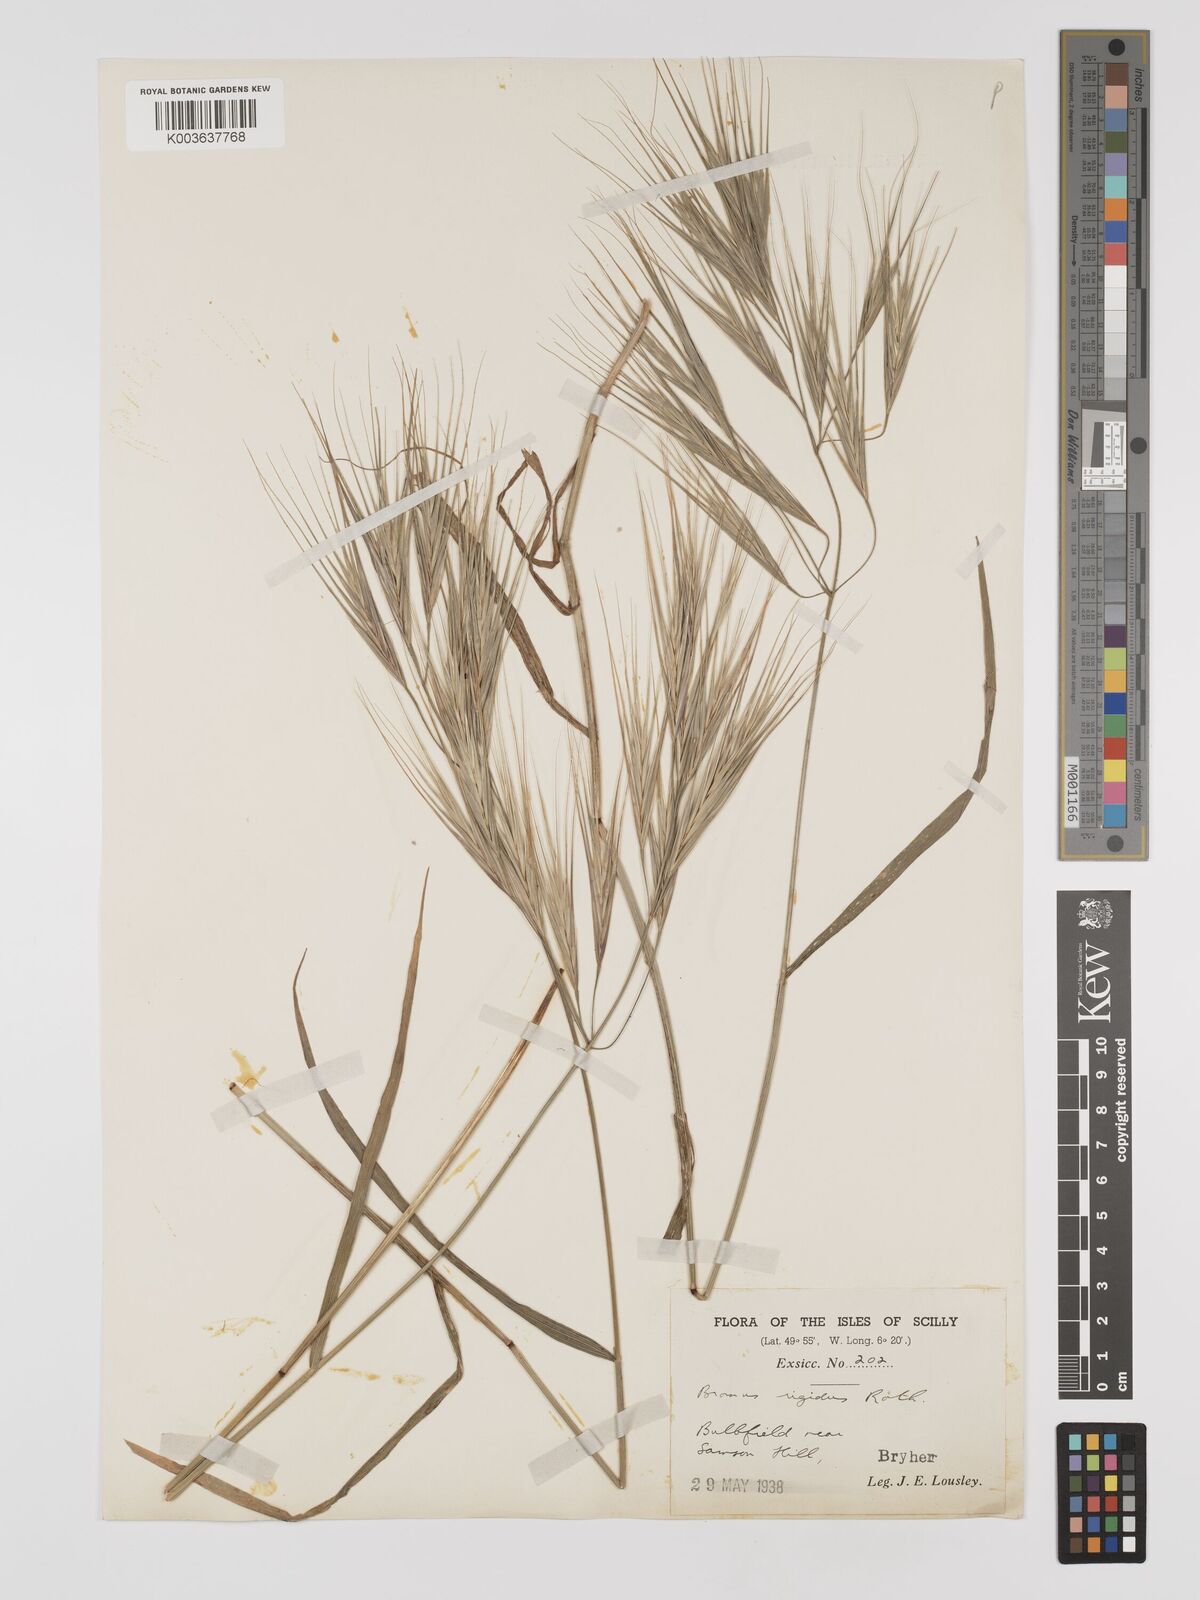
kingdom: Plantae
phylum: Tracheophyta
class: Liliopsida
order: Poales
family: Poaceae
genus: Bromus
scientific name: Bromus
